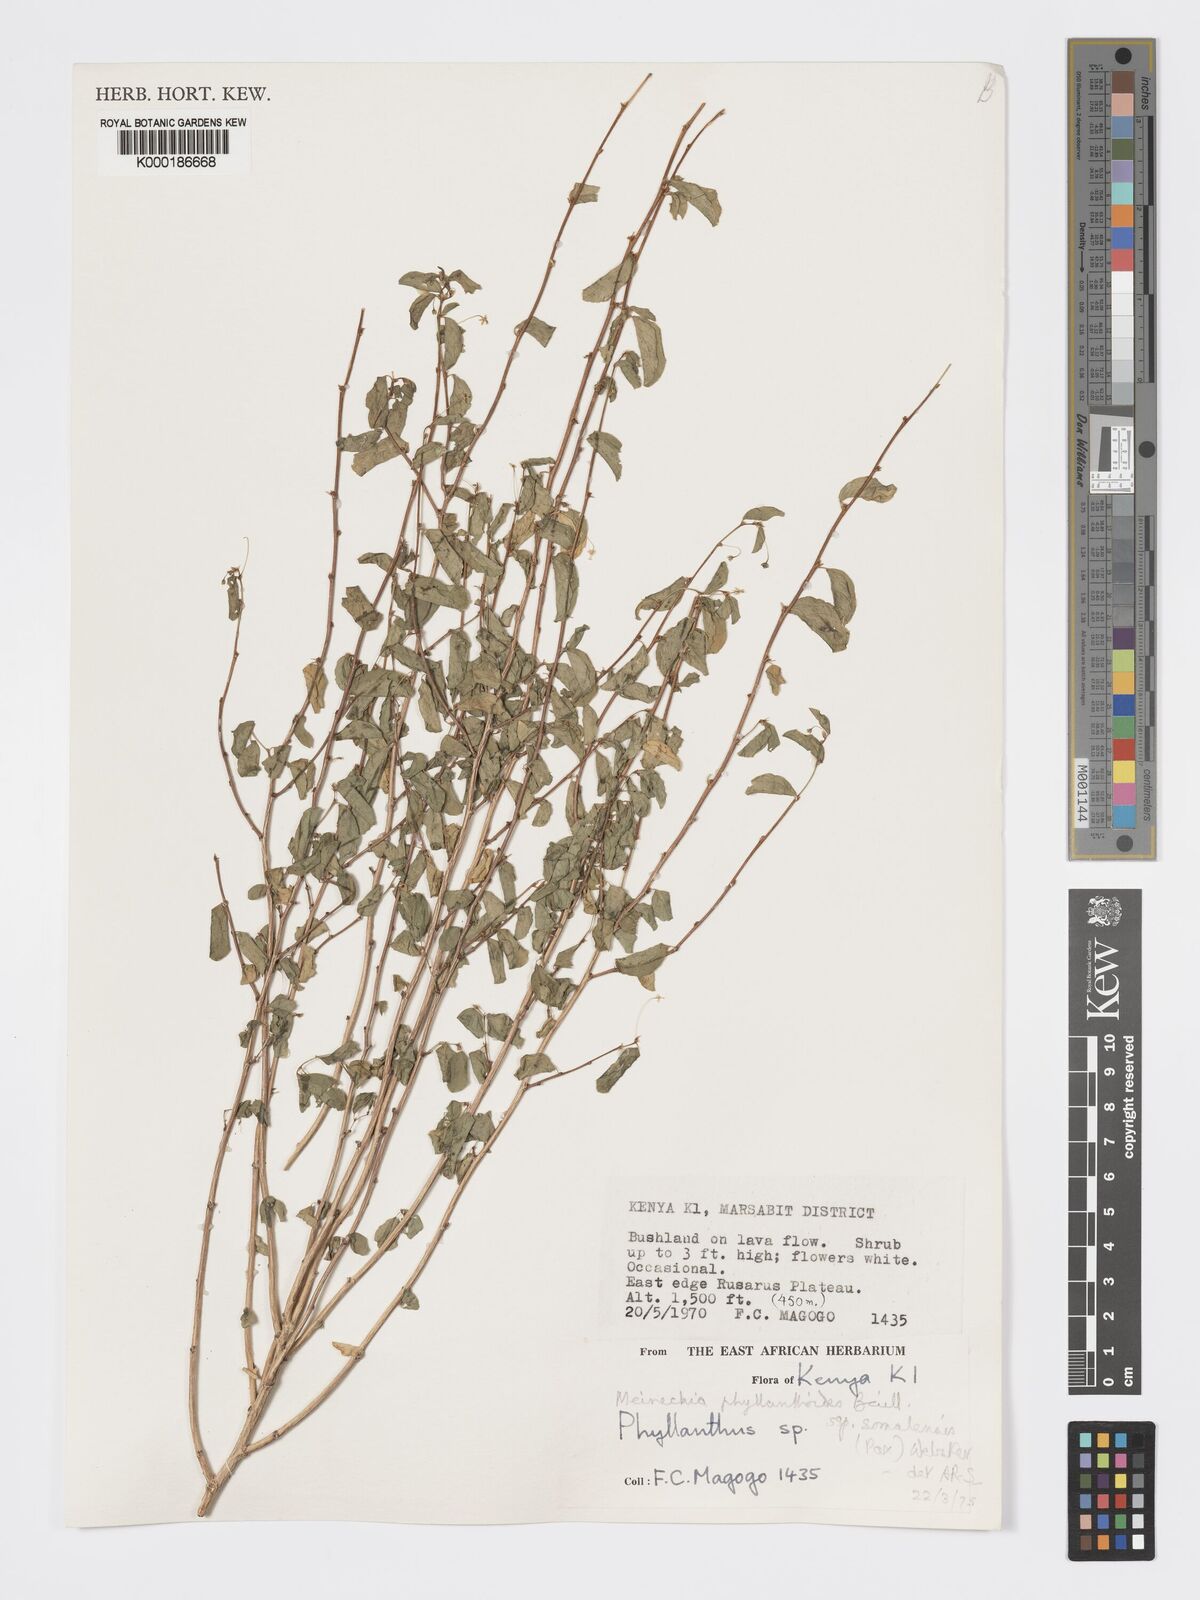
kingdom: Plantae
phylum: Tracheophyta
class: Magnoliopsida
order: Malpighiales
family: Phyllanthaceae
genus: Meineckia
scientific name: Meineckia phyllanthoides
